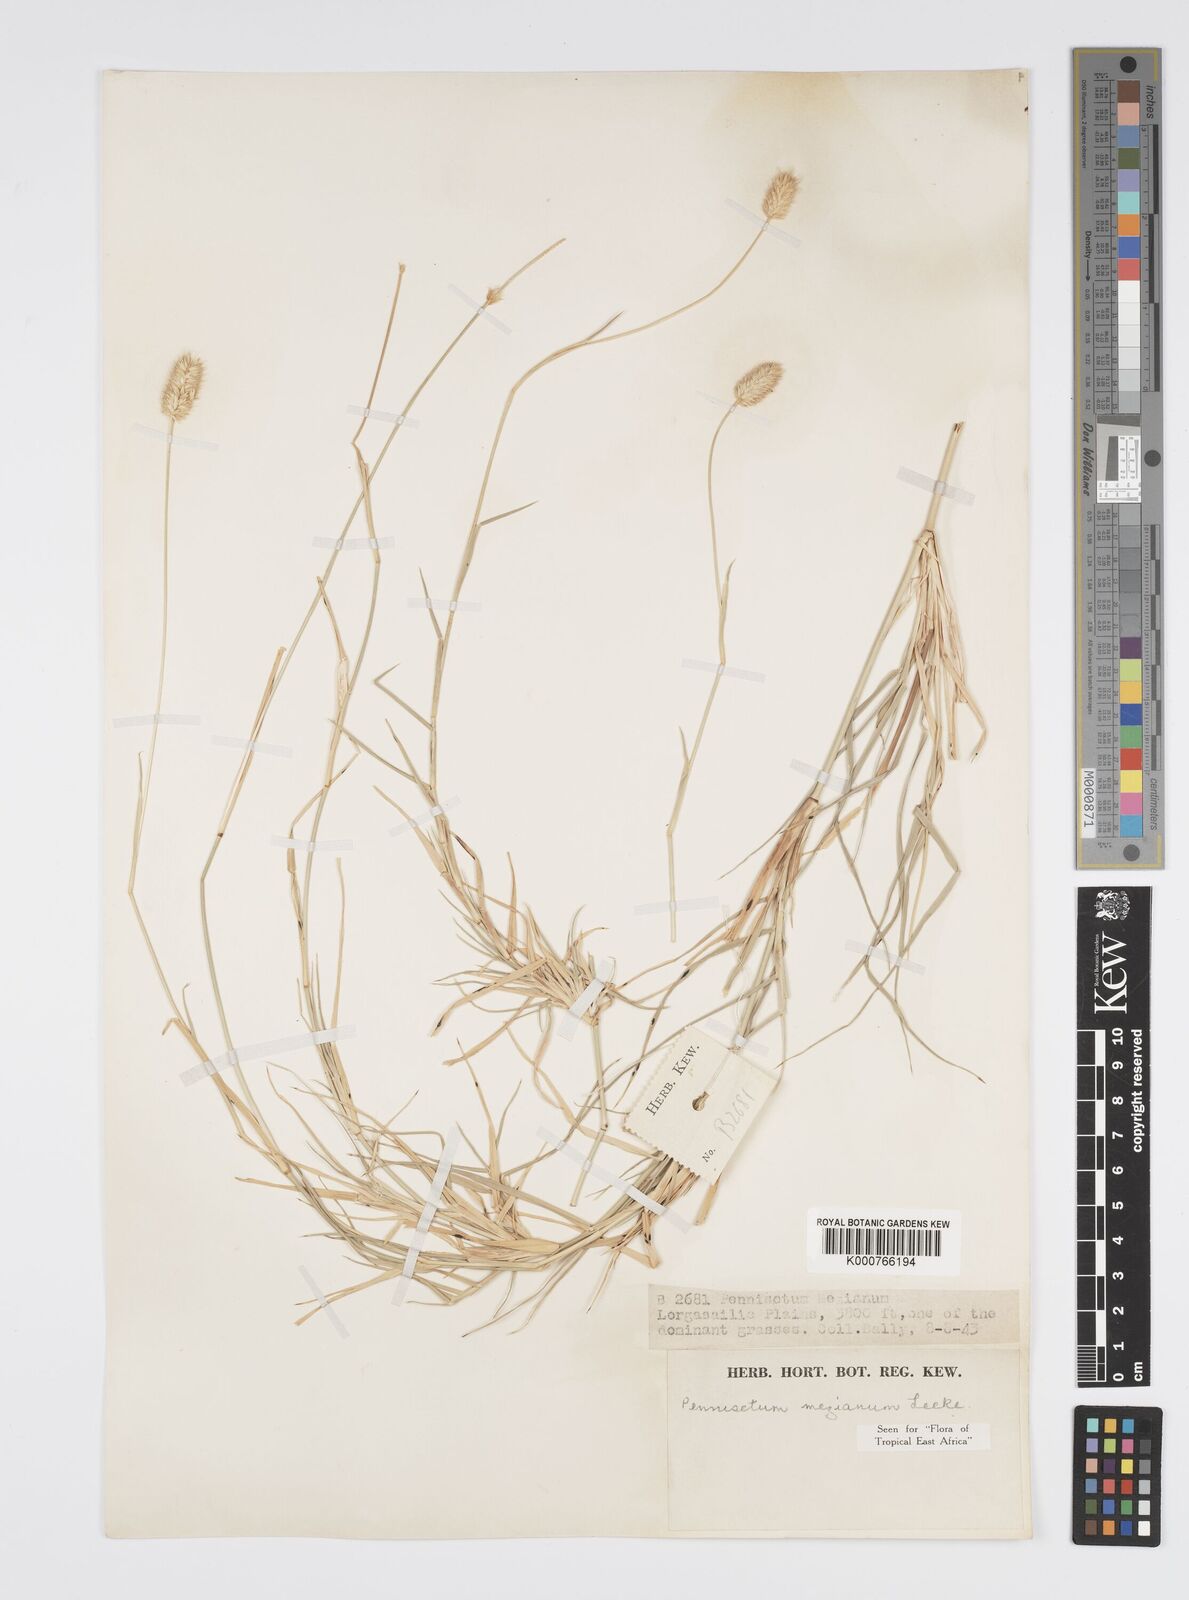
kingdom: Plantae
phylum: Tracheophyta
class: Liliopsida
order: Poales
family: Poaceae
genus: Cenchrus
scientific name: Cenchrus mezianus
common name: Bamboo grass
